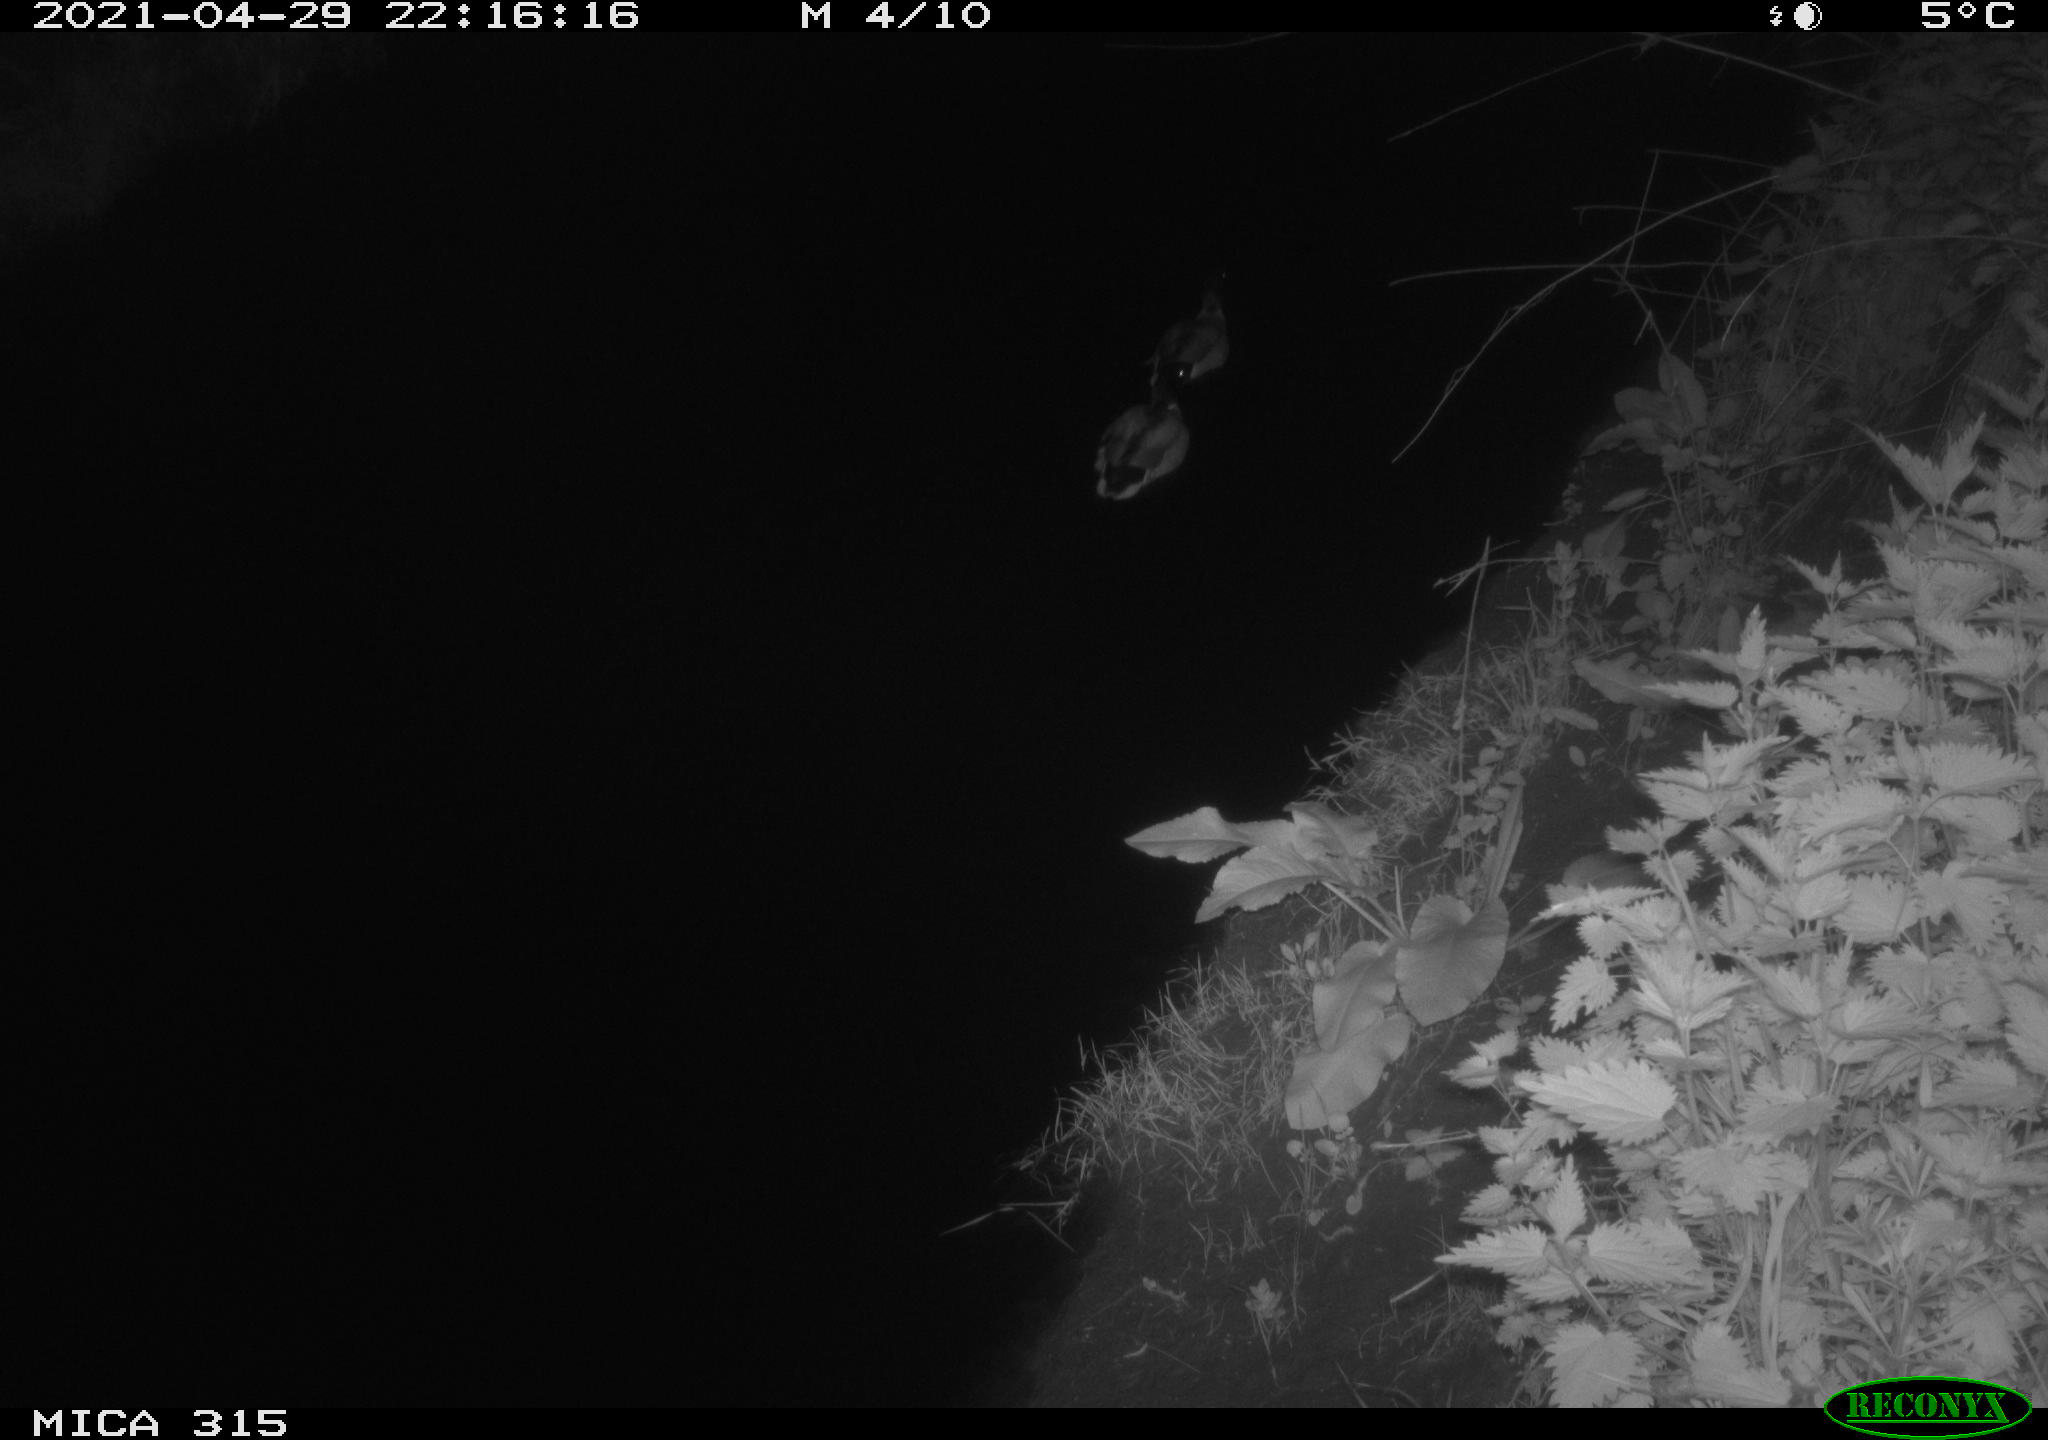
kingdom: Animalia
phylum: Chordata
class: Aves
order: Anseriformes
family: Anatidae
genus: Anas
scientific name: Anas
